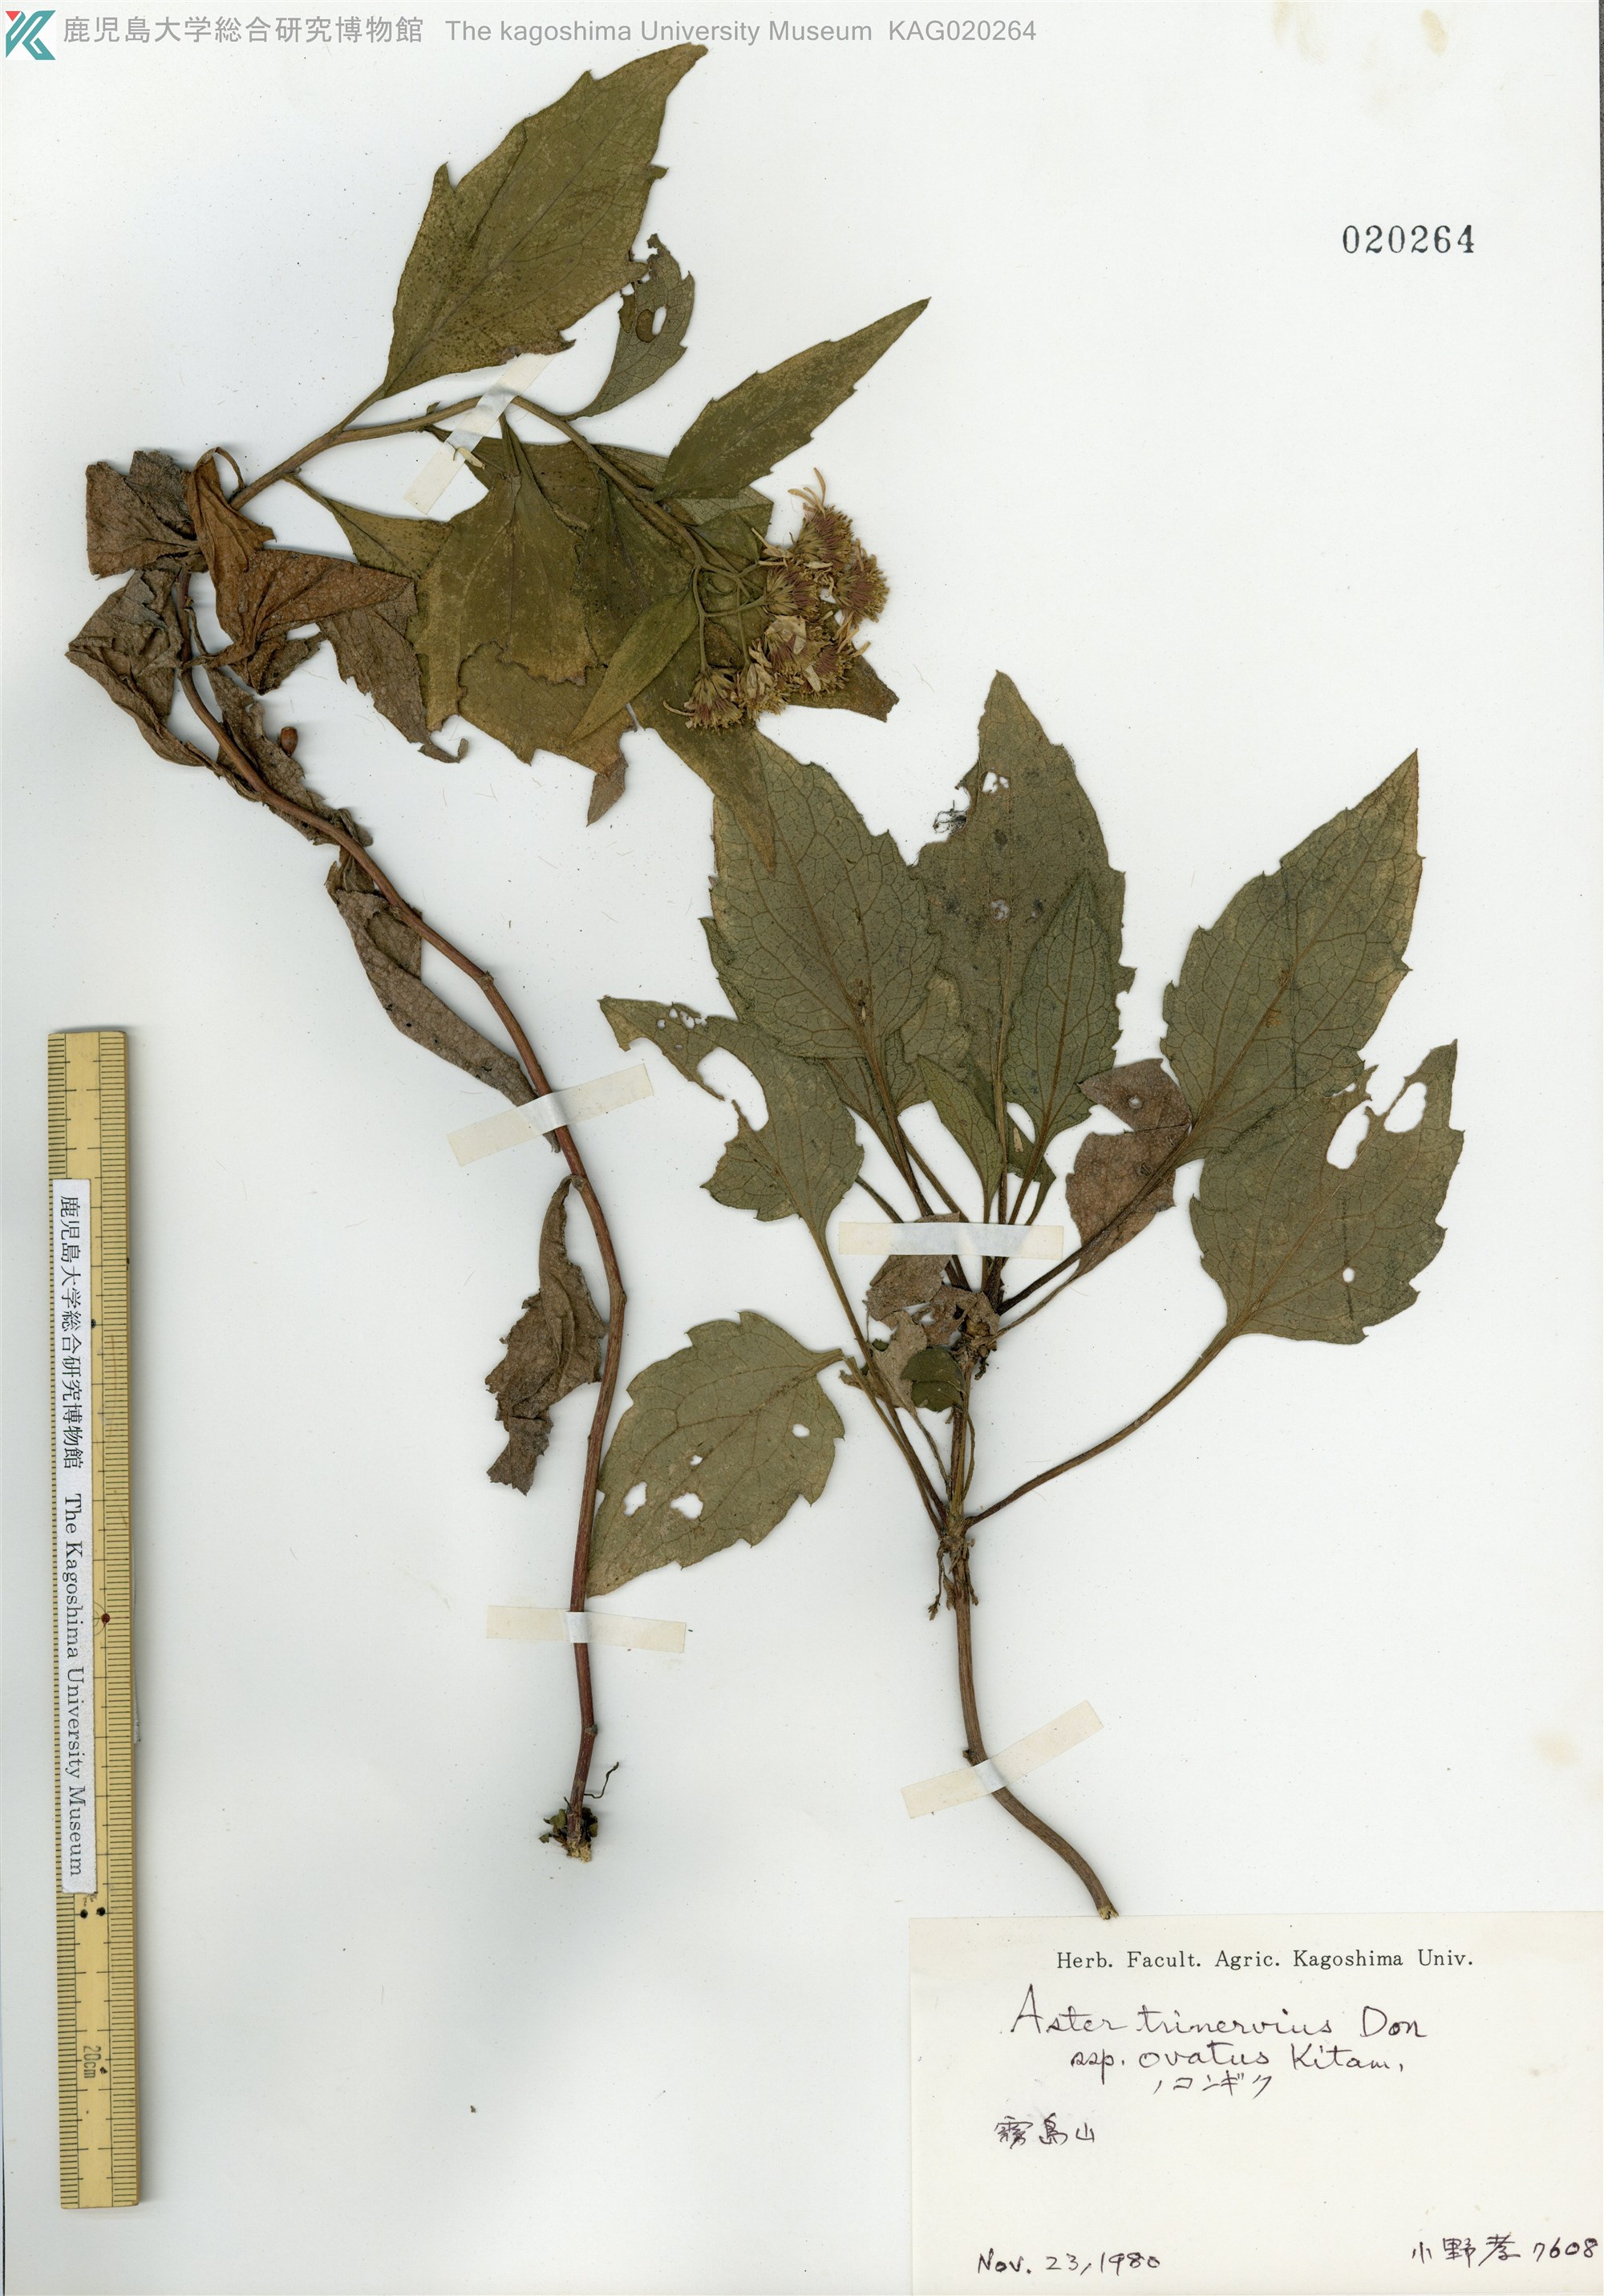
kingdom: Plantae
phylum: Tracheophyta
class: Magnoliopsida
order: Asterales
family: Asteraceae
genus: Aster
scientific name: Aster microcephalus
